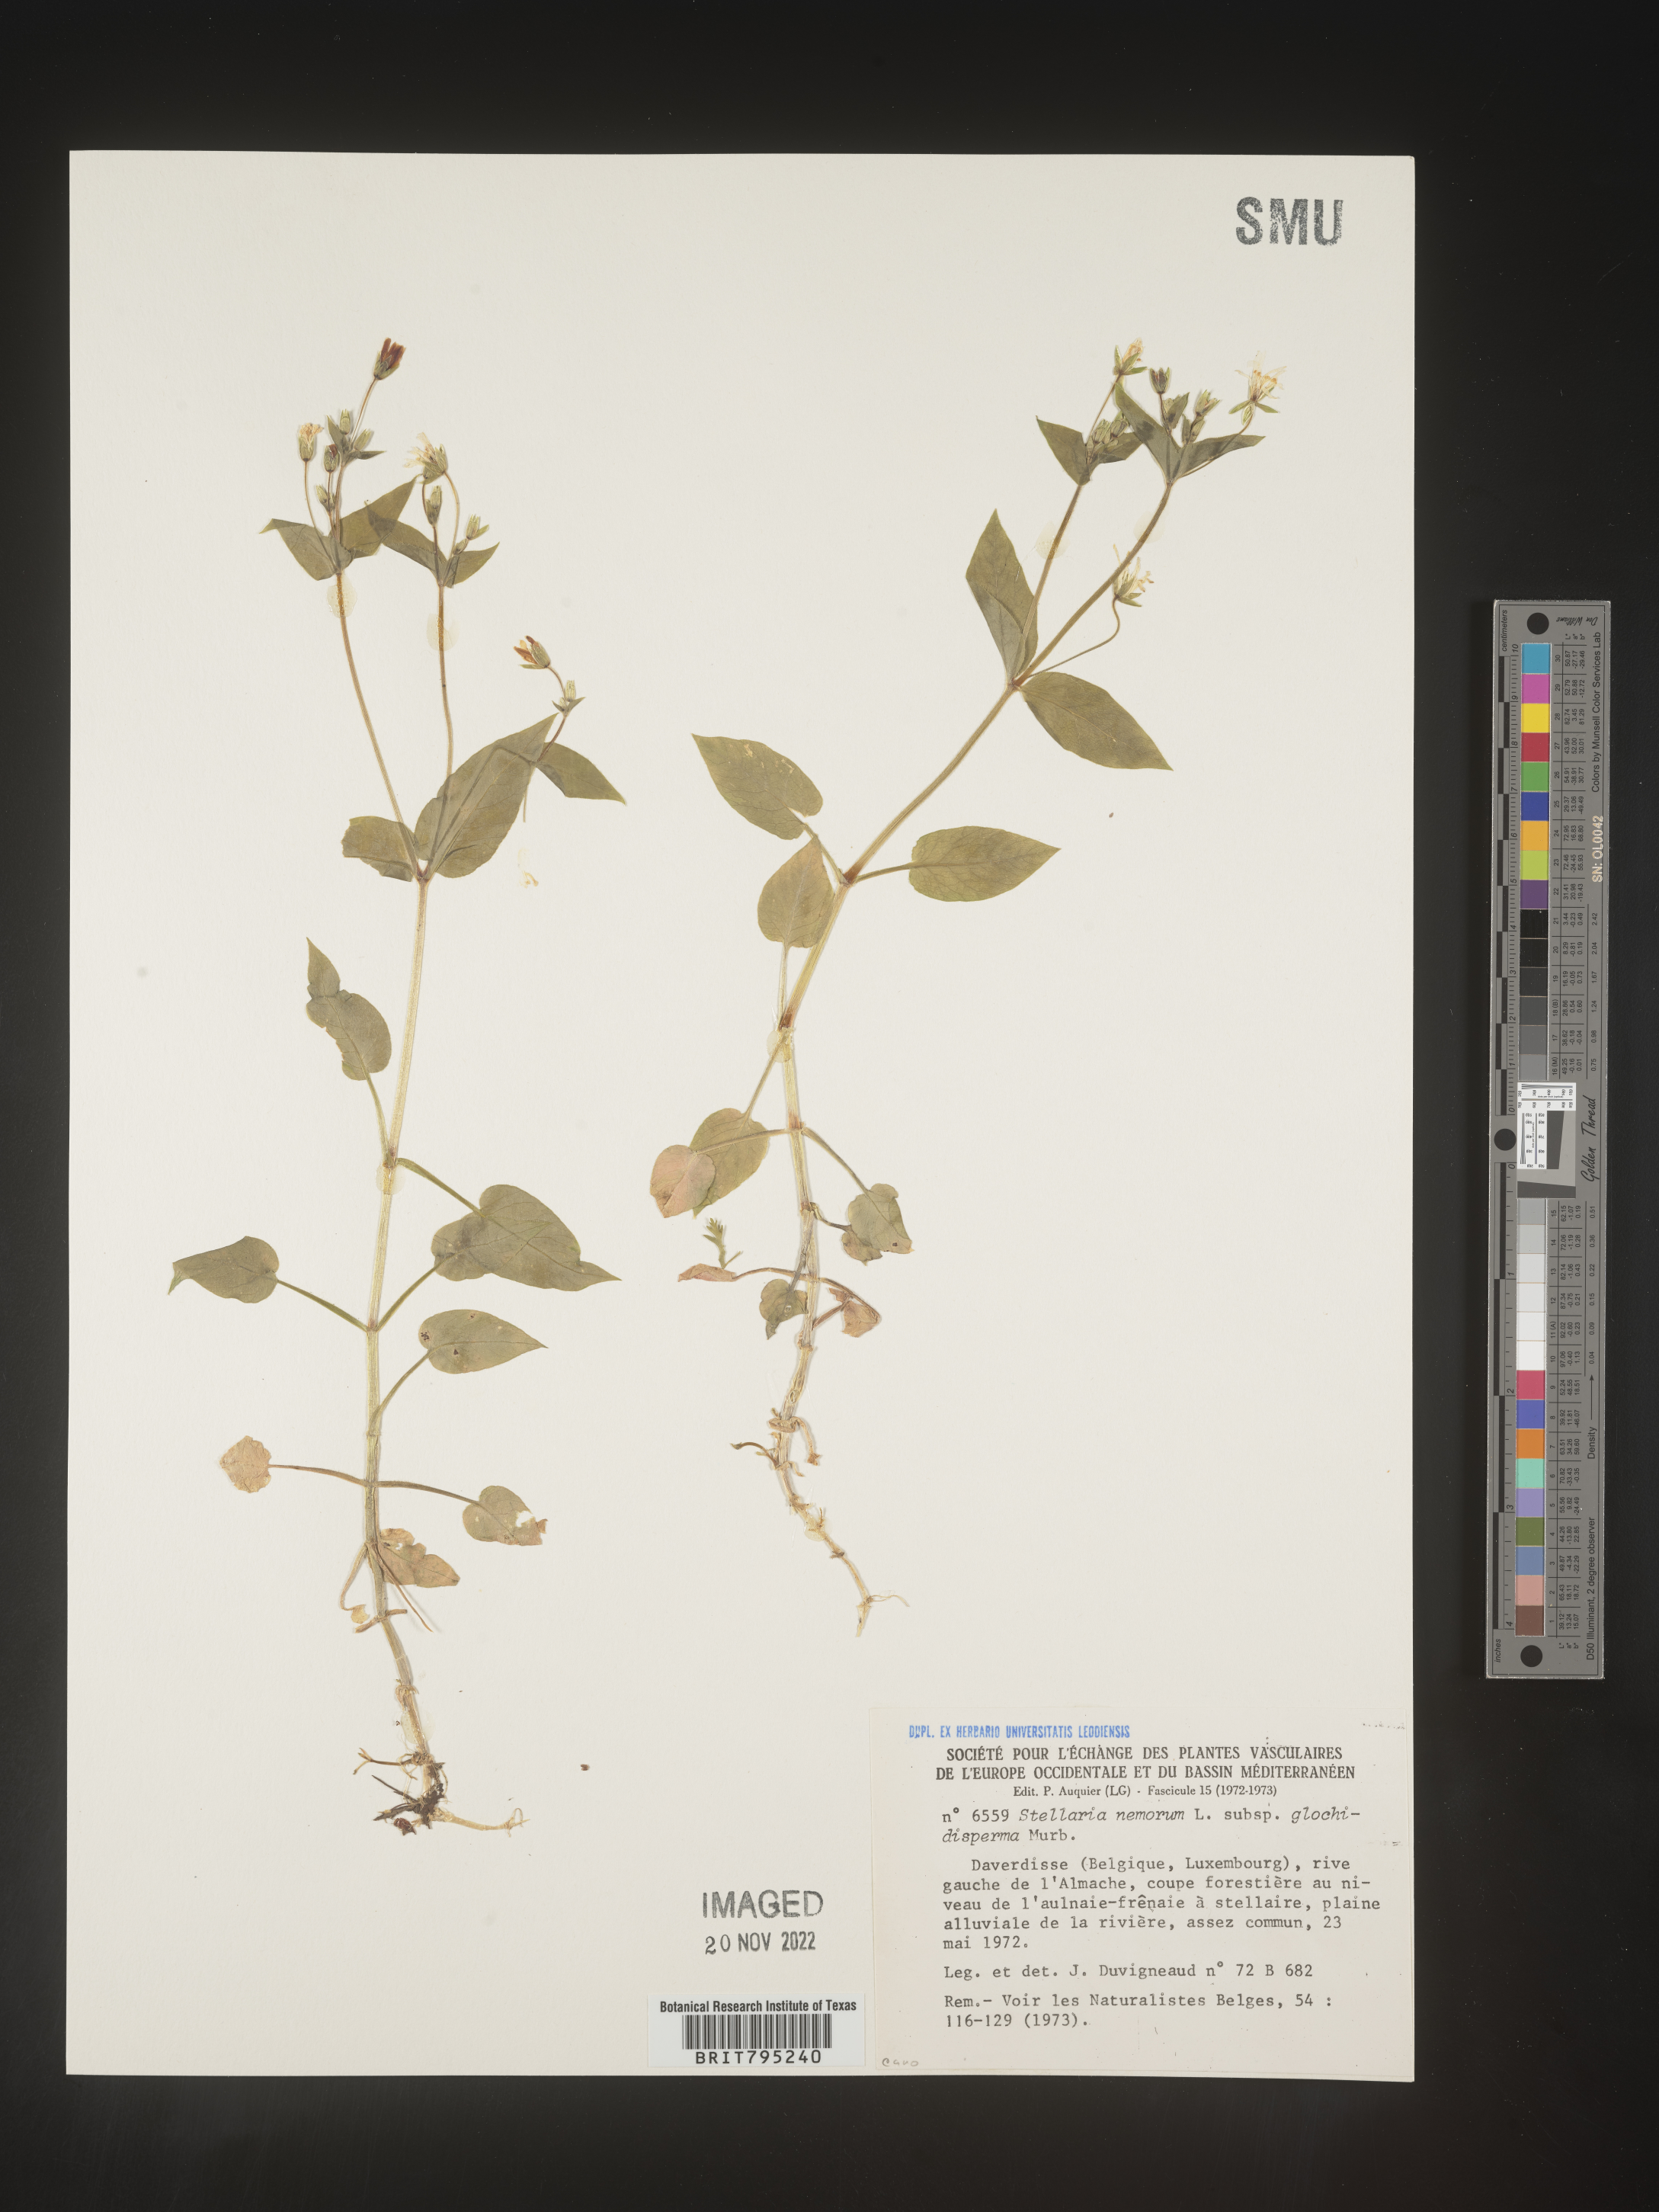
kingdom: Plantae
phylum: Tracheophyta
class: Magnoliopsida
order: Caryophyllales
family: Caryophyllaceae
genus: Stellaria
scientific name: Stellaria
